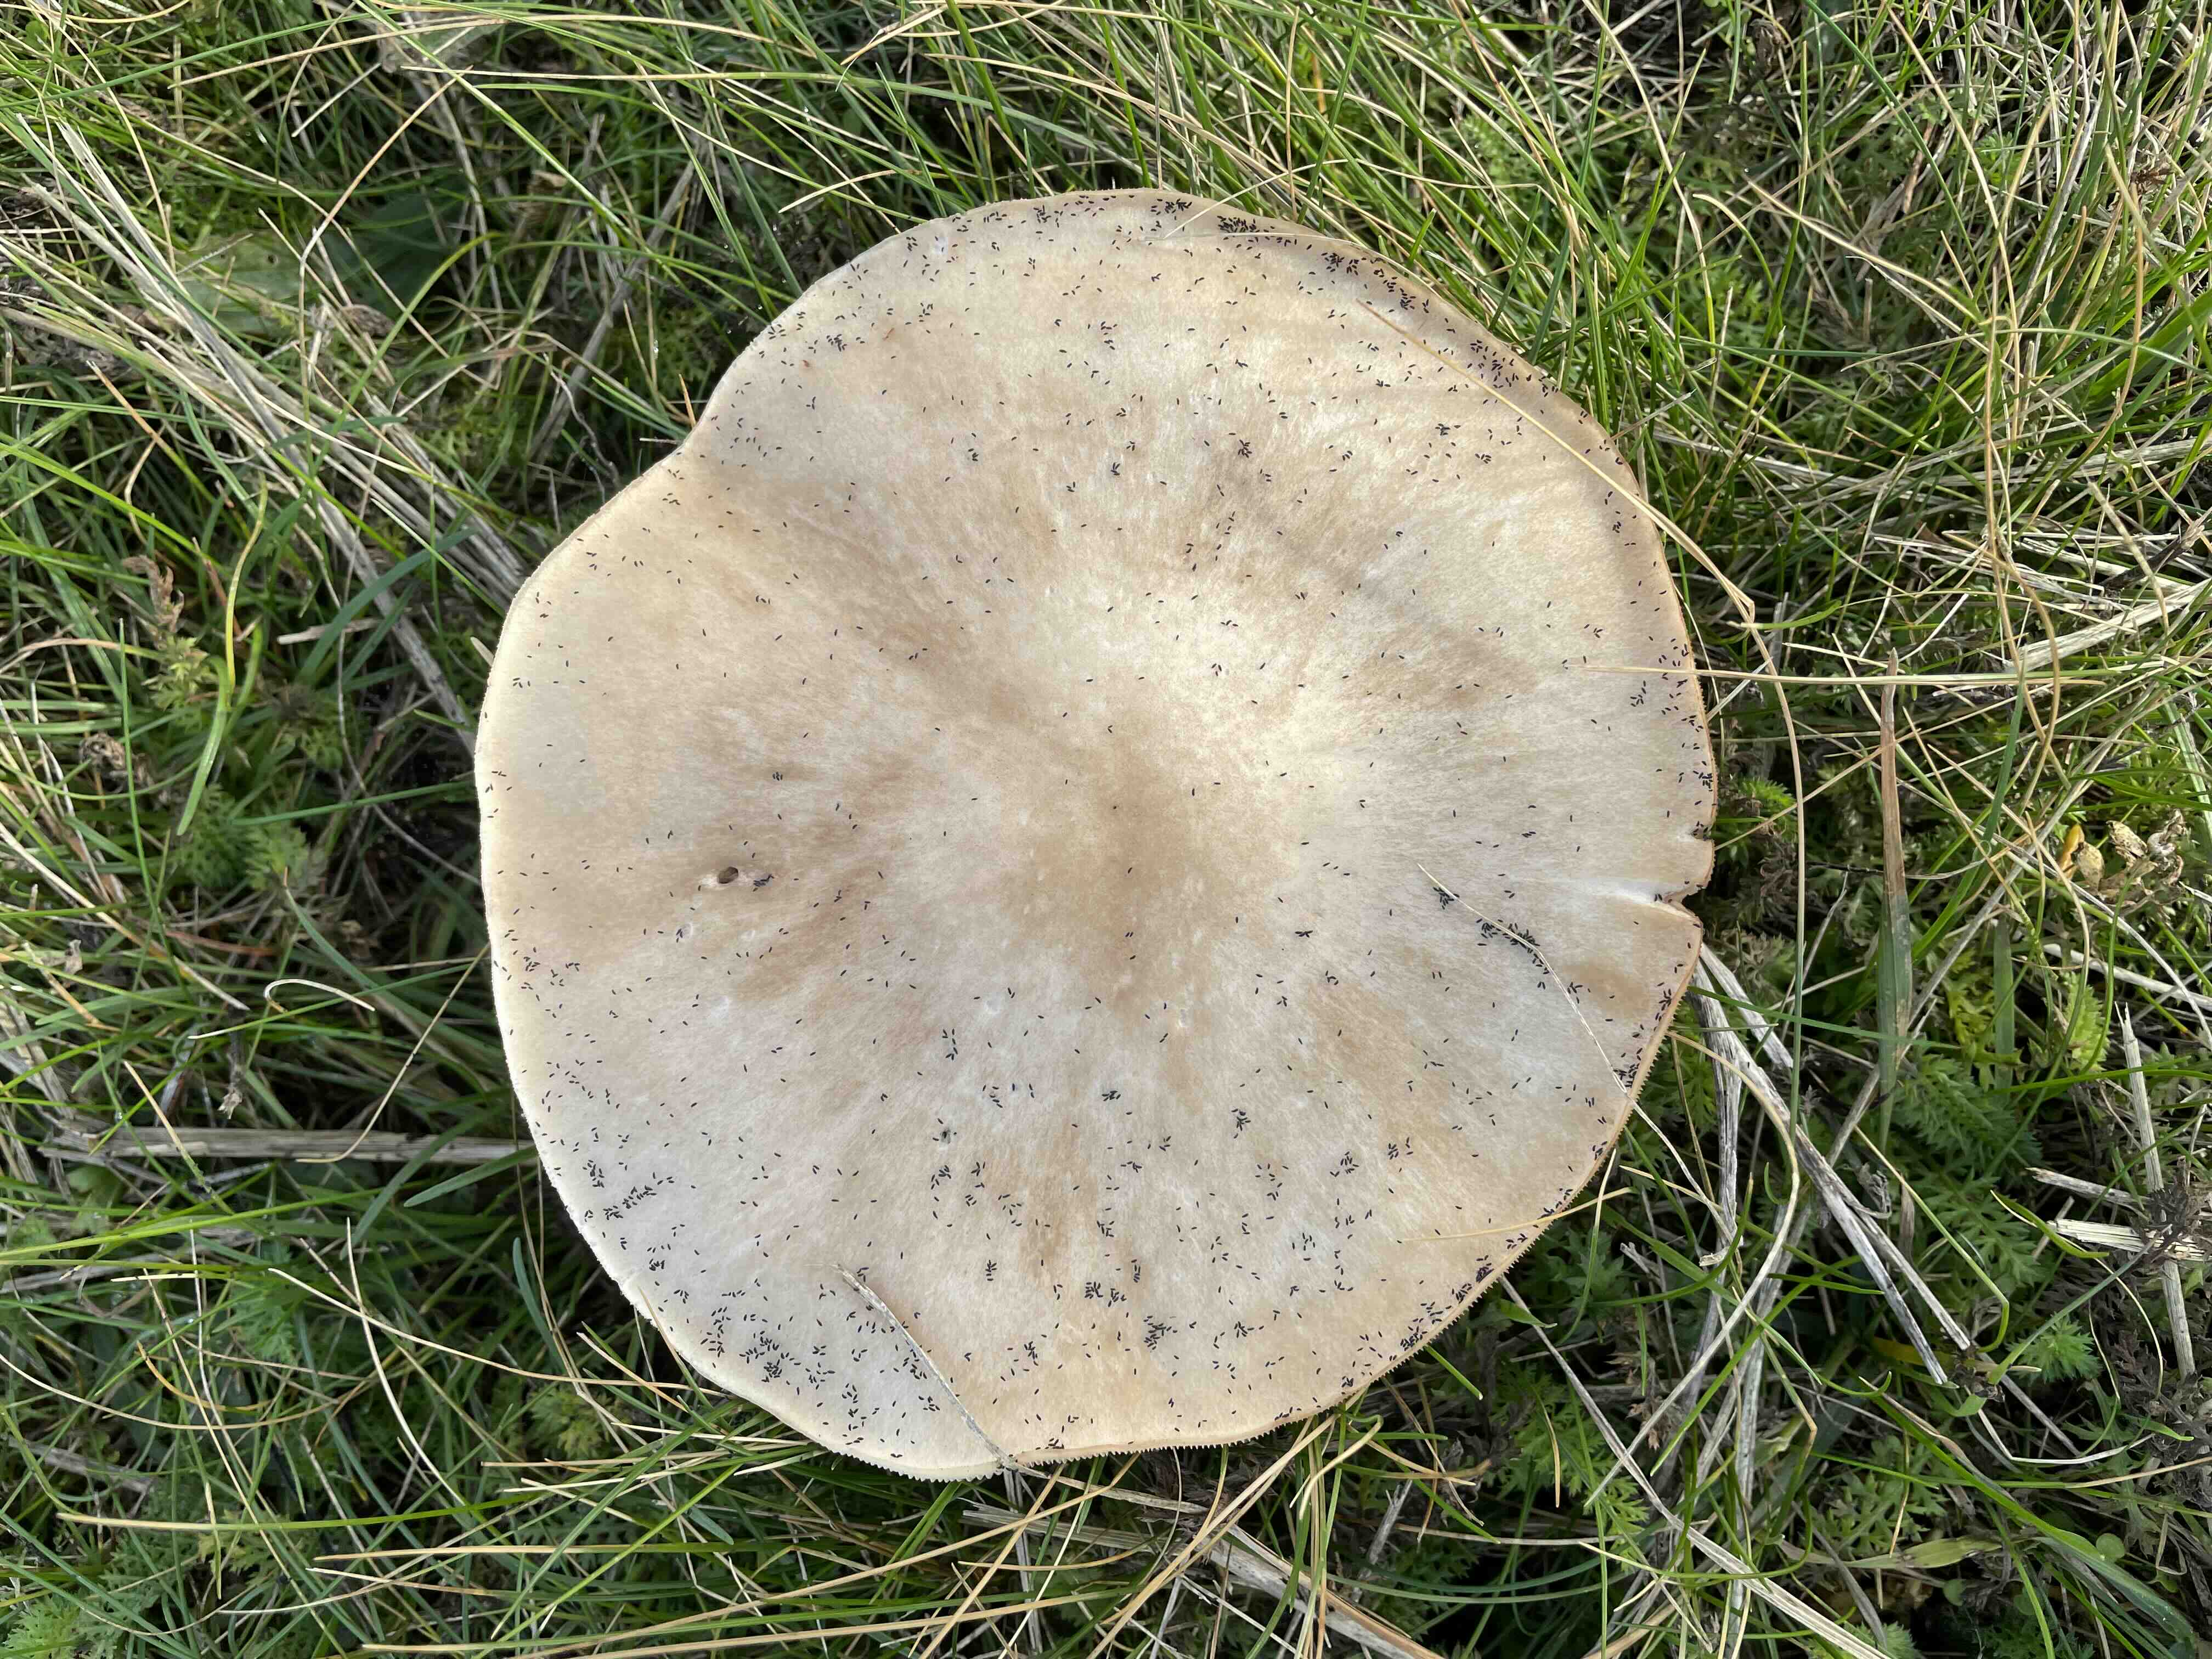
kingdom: Fungi
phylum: Basidiomycota
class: Agaricomycetes
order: Agaricales
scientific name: Agaricales
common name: champignonordenen
